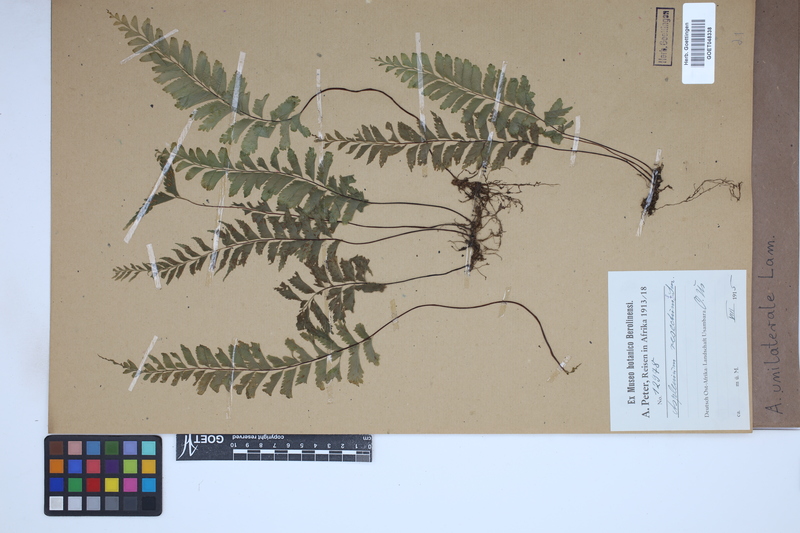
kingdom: Plantae
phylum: Tracheophyta
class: Polypodiopsida
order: Polypodiales
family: Aspleniaceae
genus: Hymenasplenium
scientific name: Hymenasplenium unilaterale
